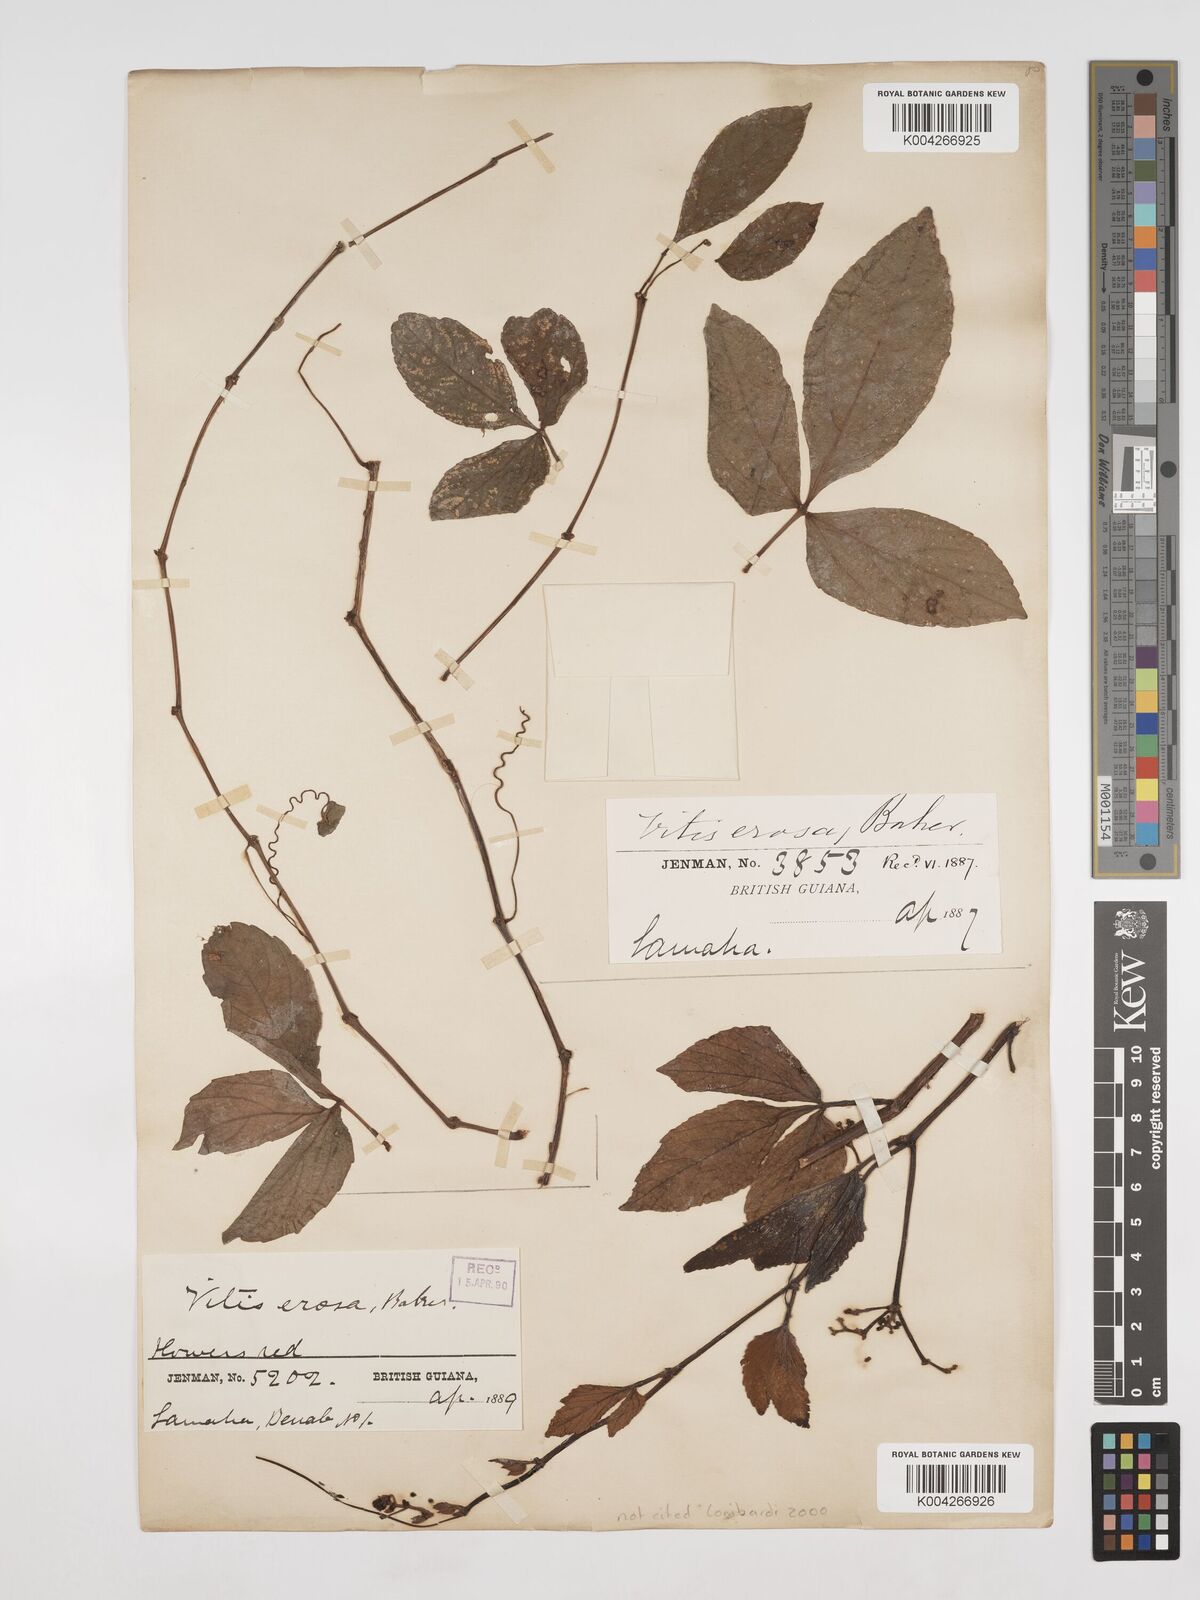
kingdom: Plantae
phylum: Tracheophyta
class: Magnoliopsida
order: Vitales
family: Vitaceae
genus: Cissus
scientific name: Cissus erosa
